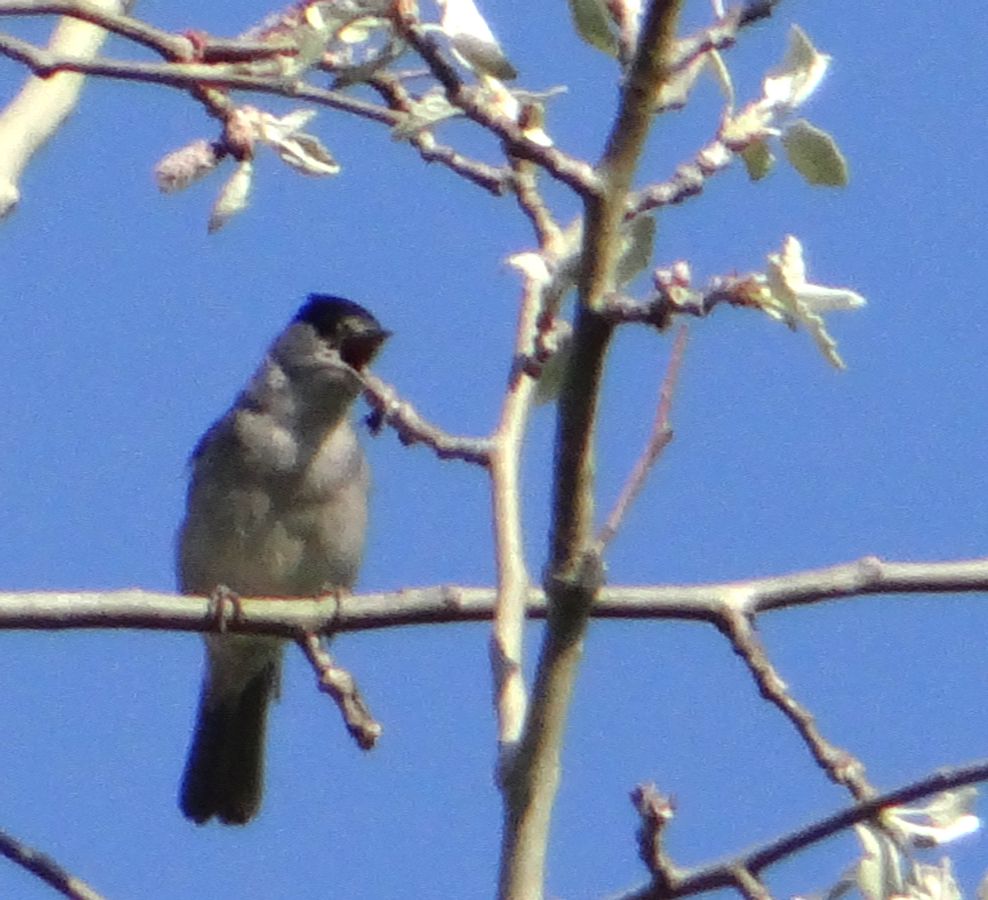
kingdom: Animalia
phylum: Chordata
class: Aves
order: Passeriformes
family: Sylviidae
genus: Sylvia
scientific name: Sylvia atricapilla
